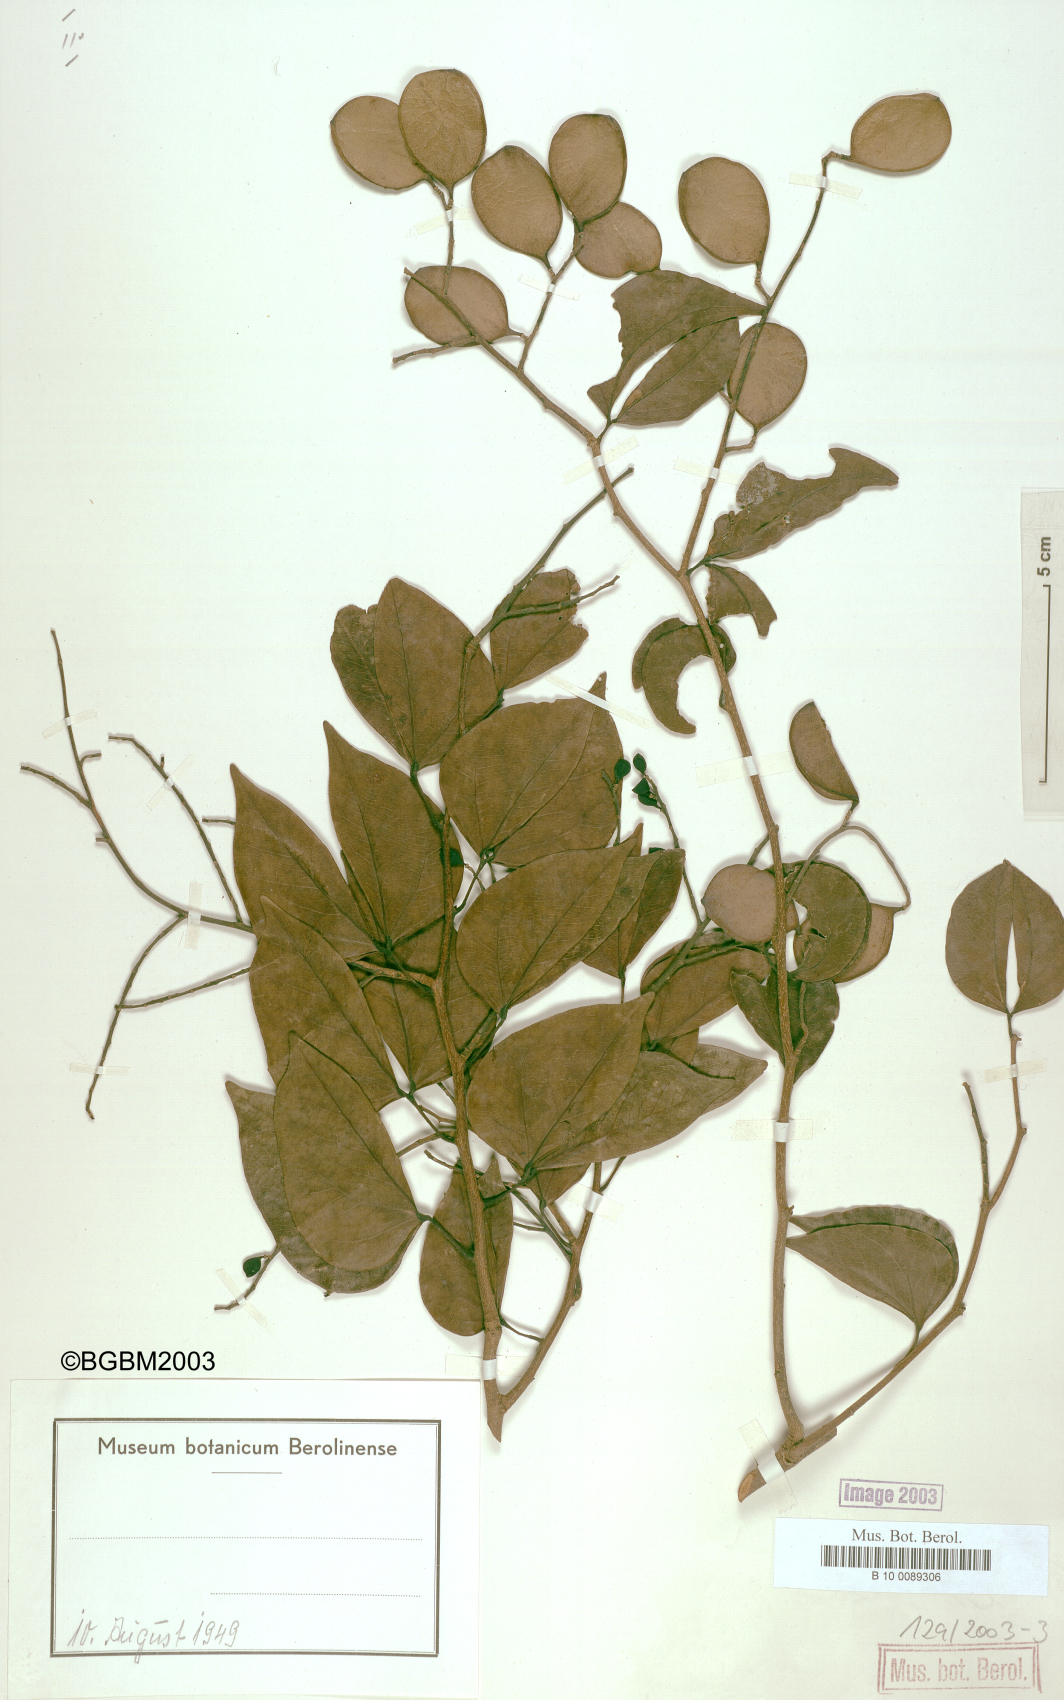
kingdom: Plantae
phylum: Tracheophyta
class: Magnoliopsida
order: Fabales
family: Fabaceae
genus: Copaifera
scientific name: Copaifera carrissoana
